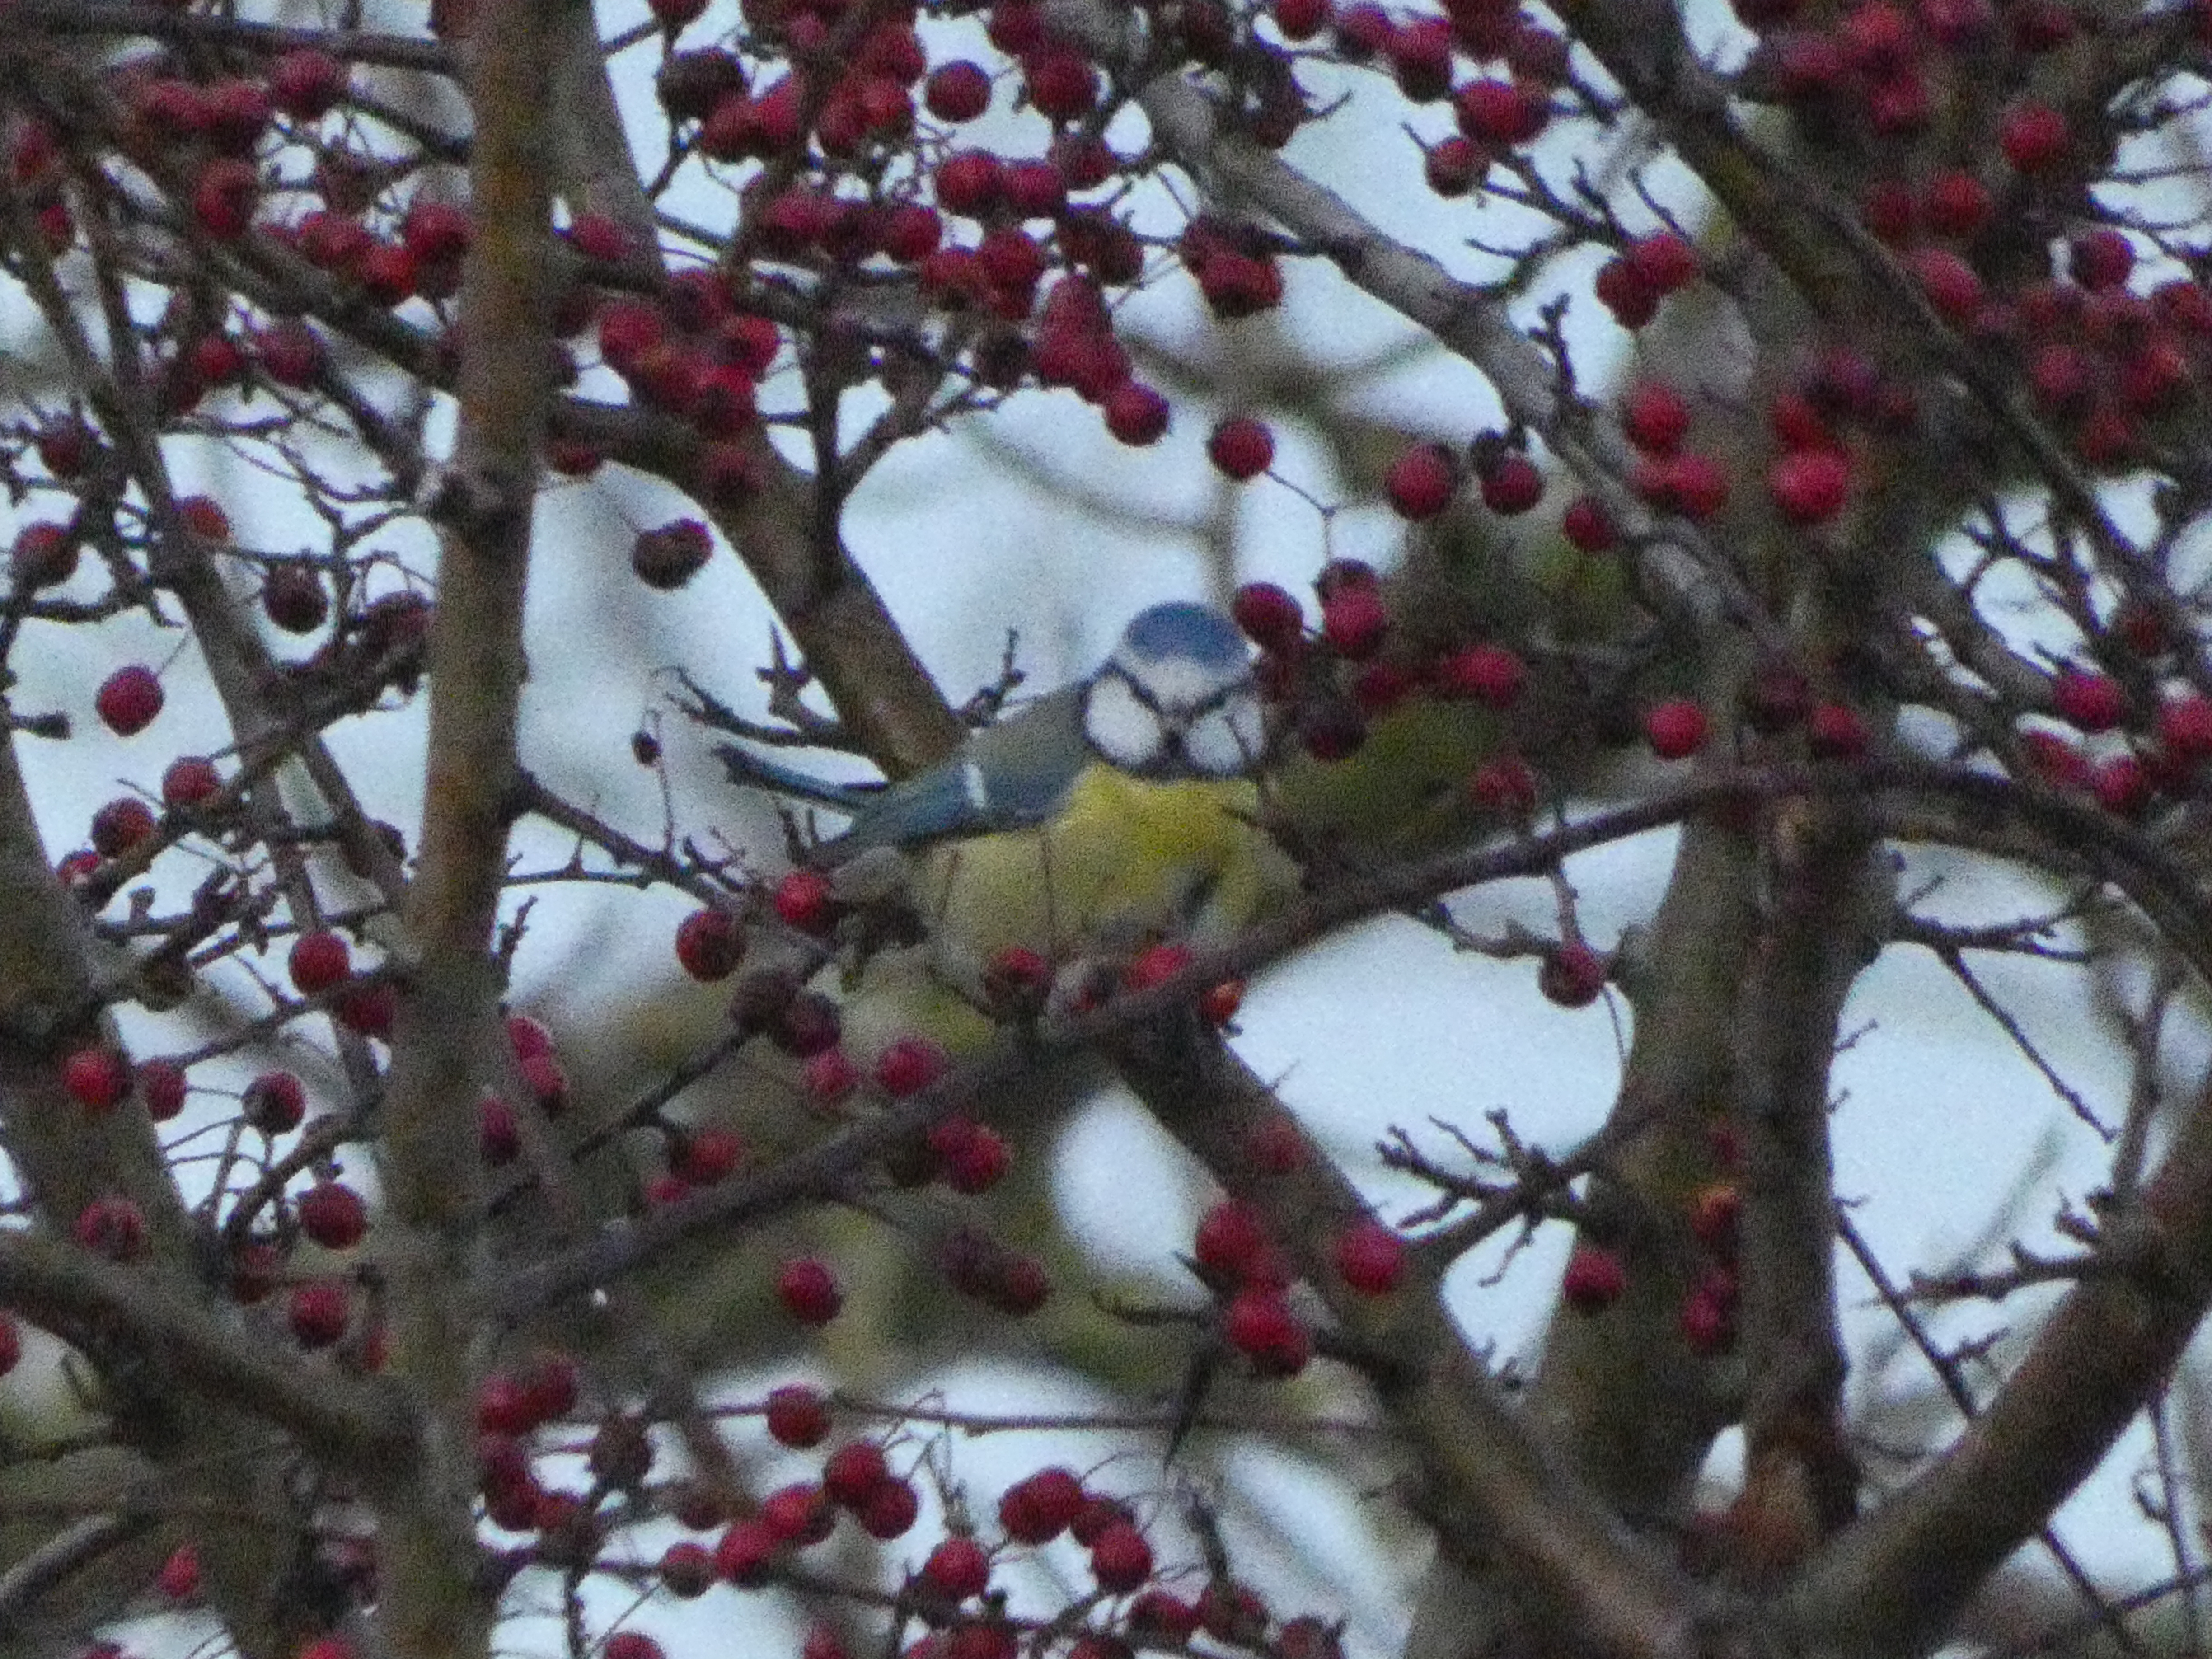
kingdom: Animalia
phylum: Chordata
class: Aves
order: Passeriformes
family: Paridae
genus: Cyanistes
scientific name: Cyanistes caeruleus
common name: Blåmejse
